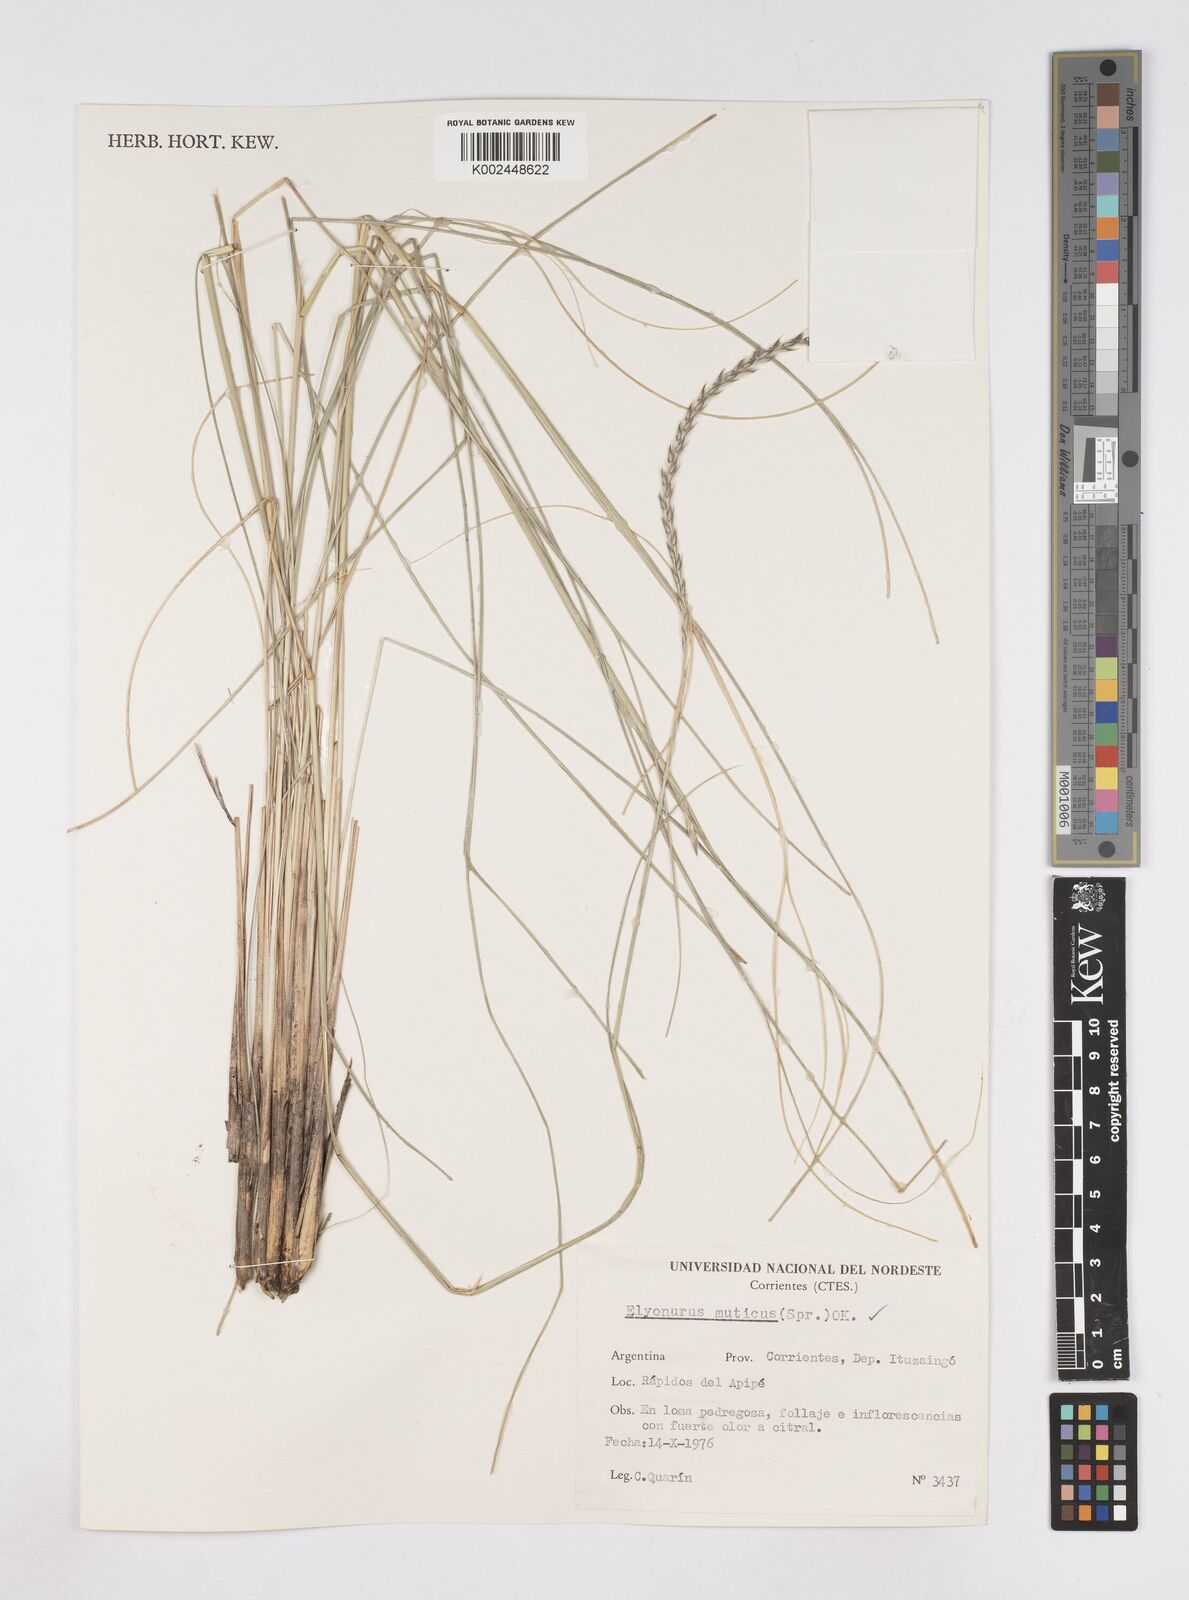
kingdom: Plantae
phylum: Tracheophyta
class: Liliopsida
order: Poales
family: Poaceae
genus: Elionurus
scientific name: Elionurus muticus
